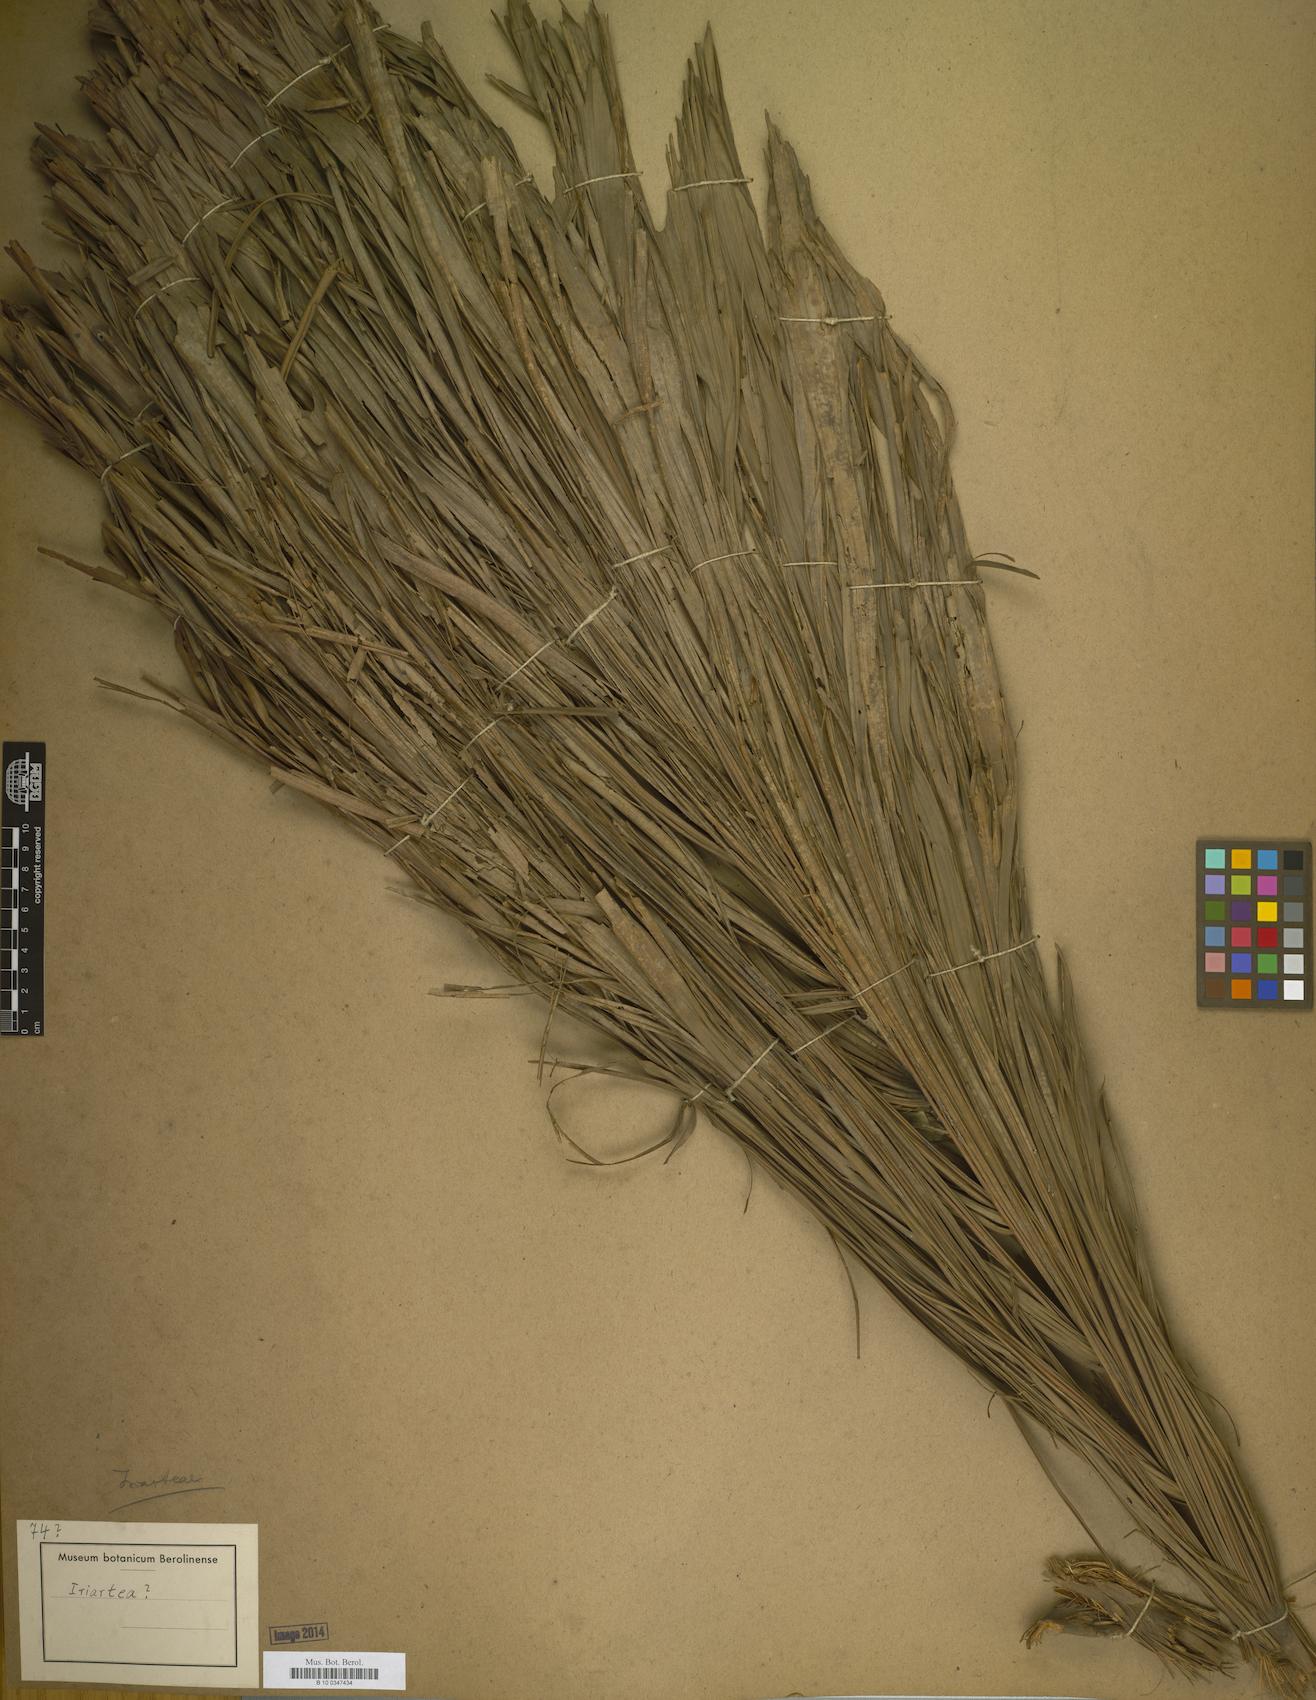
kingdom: Plantae
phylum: Tracheophyta
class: Liliopsida
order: Arecales
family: Arecaceae
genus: Iriartea
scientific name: Iriartea
